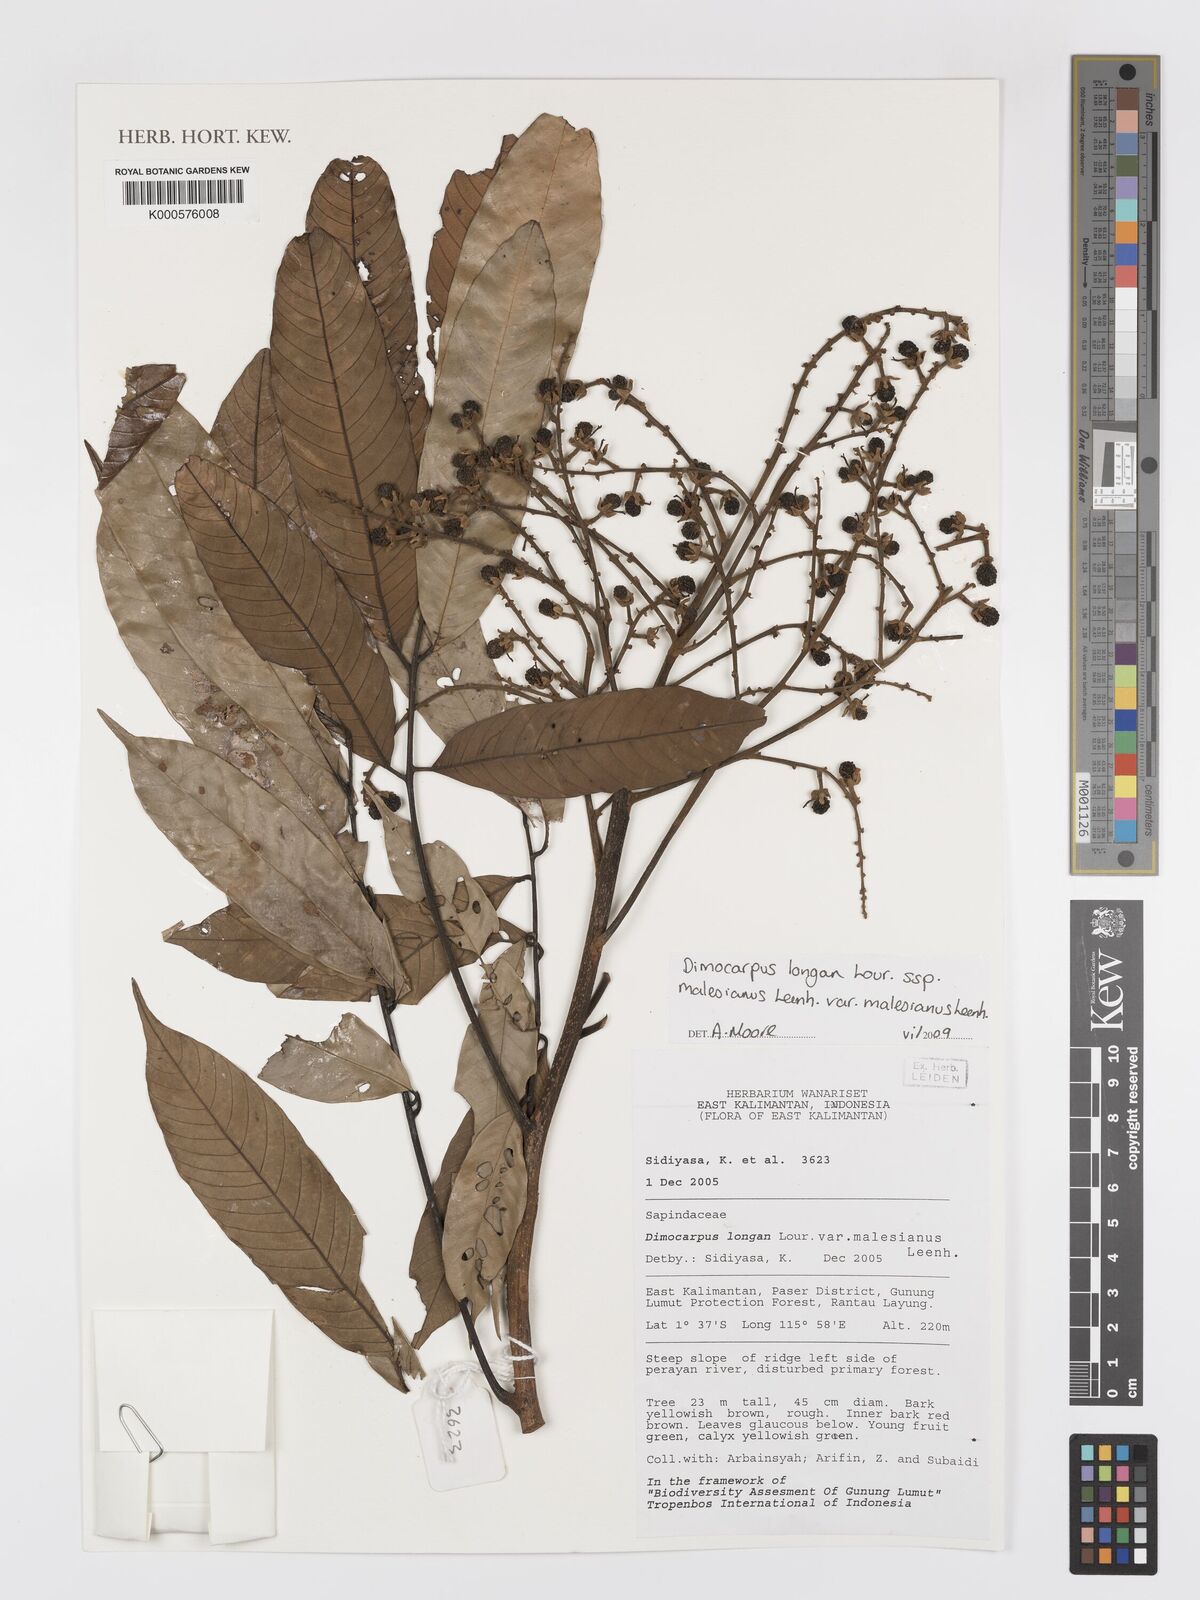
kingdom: Plantae
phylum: Tracheophyta
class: Magnoliopsida
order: Sapindales
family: Sapindaceae
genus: Nephelium
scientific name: Nephelium
